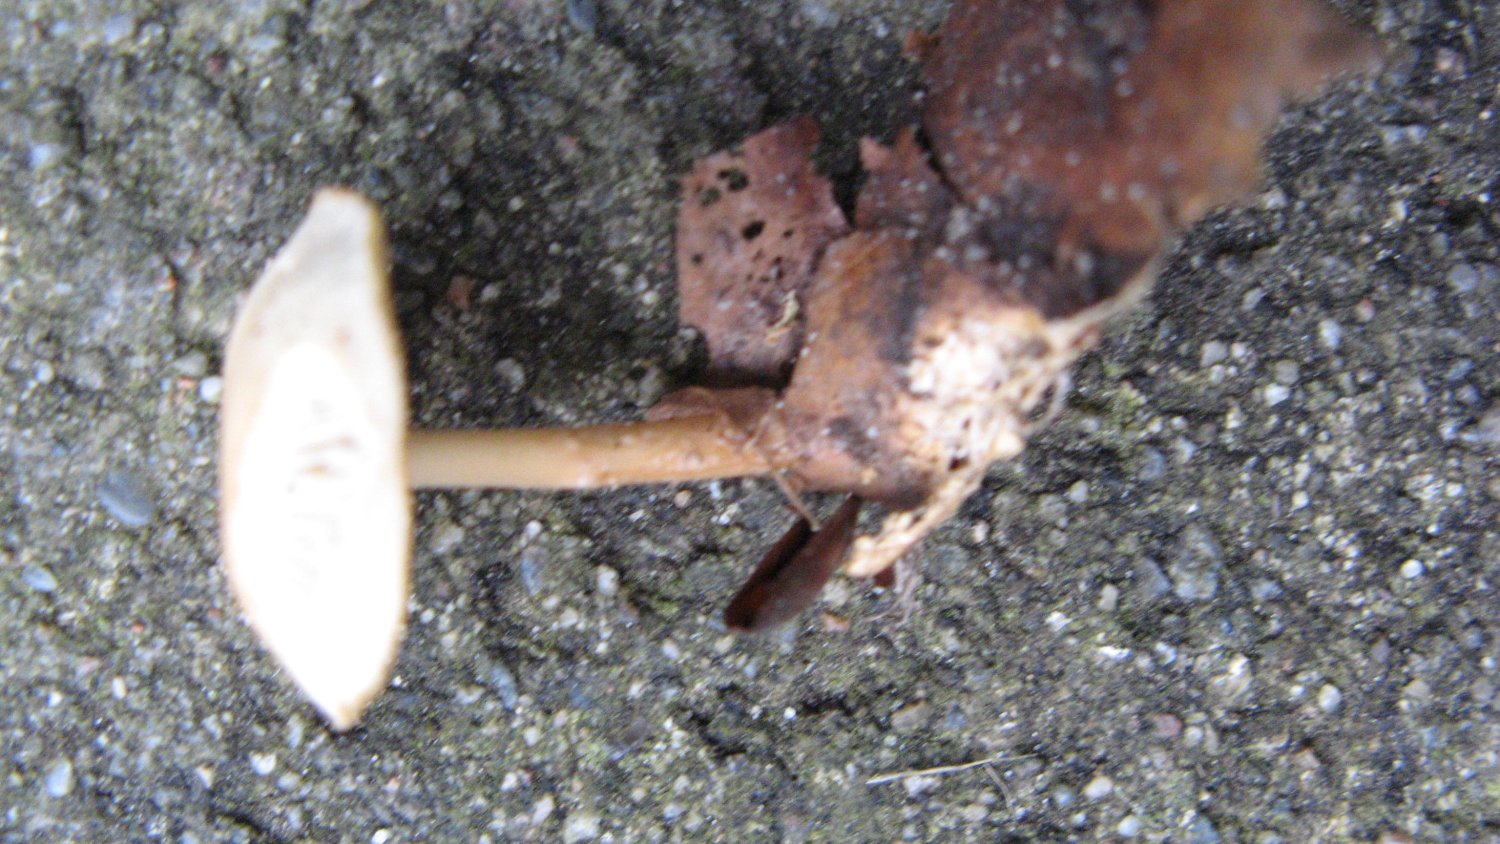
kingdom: Fungi
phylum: Basidiomycota
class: Agaricomycetes
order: Agaricales
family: Omphalotaceae
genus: Gymnopus
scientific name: Gymnopus dryophilus
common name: løv-fladhat
